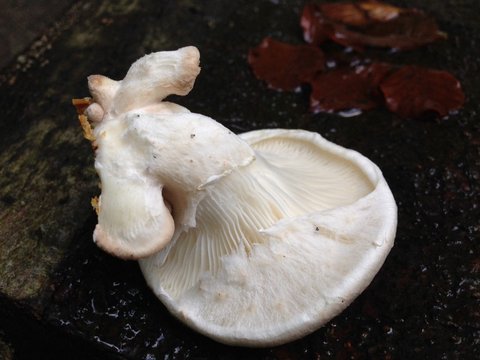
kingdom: Fungi
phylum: Basidiomycota
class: Agaricomycetes
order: Agaricales
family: Pleurotaceae
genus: Pleurotus
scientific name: Pleurotus dryinus
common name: korkagtig østershat
